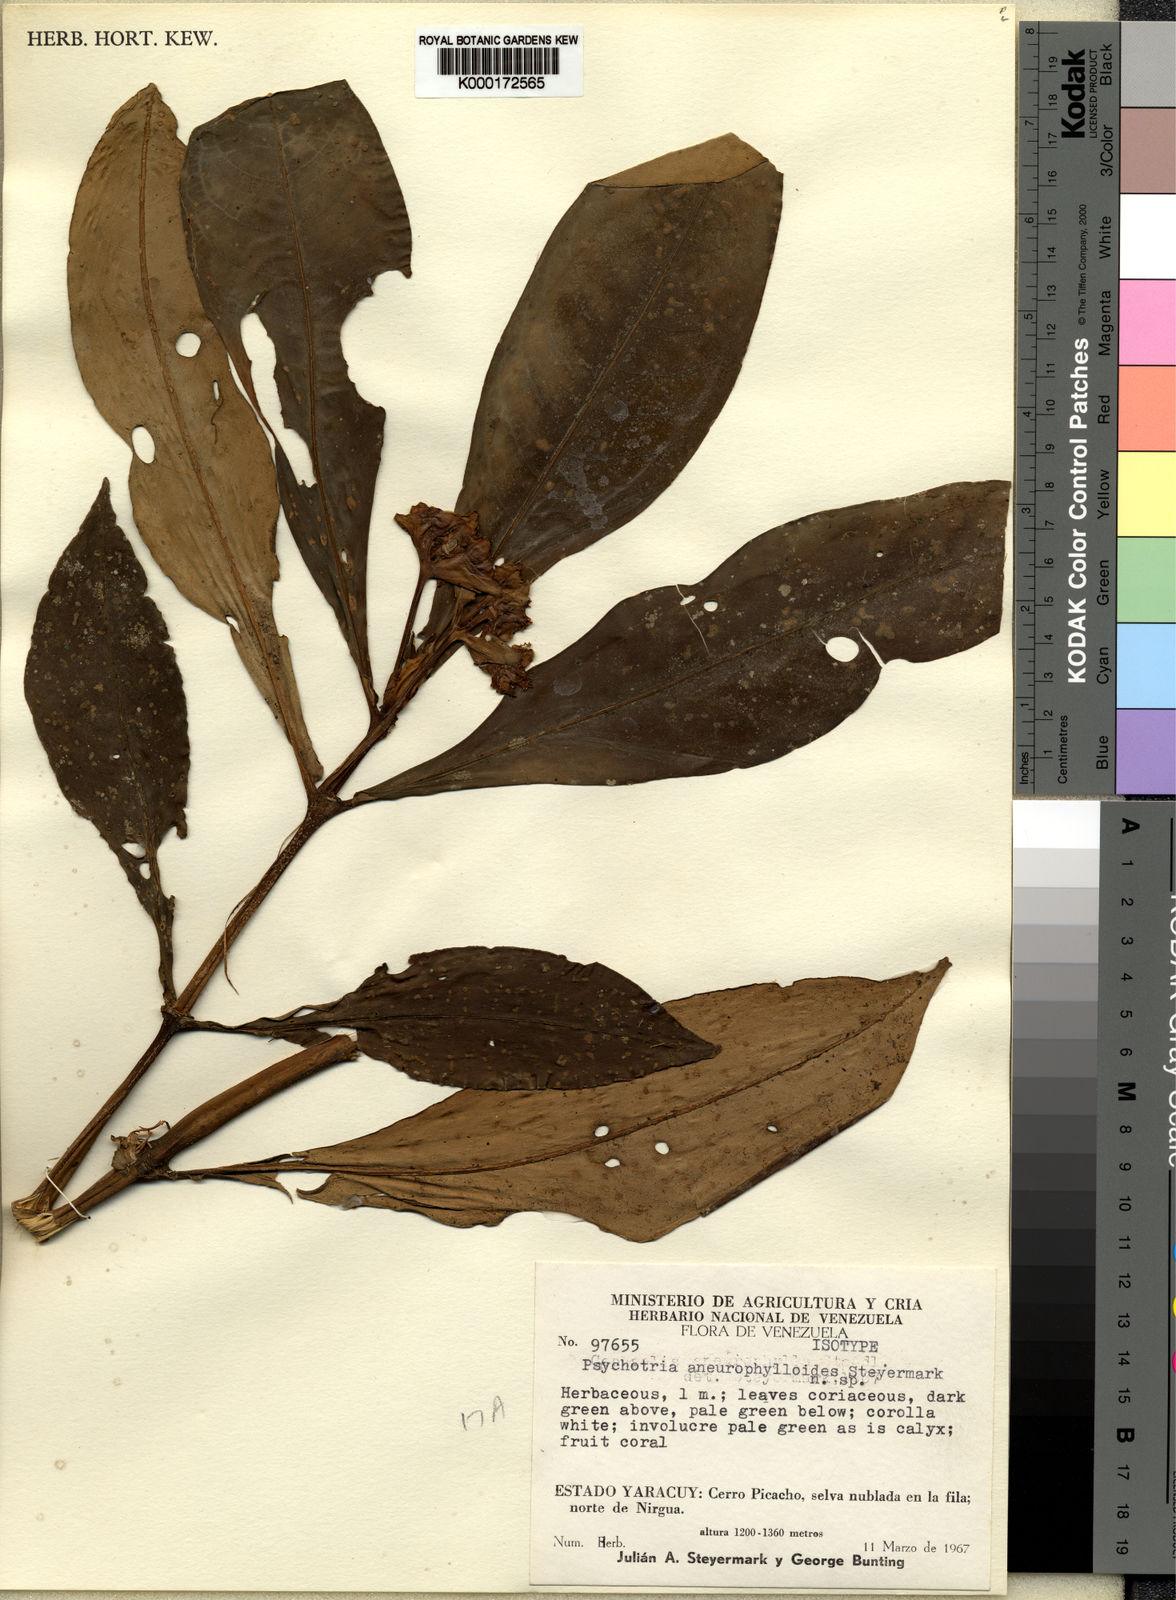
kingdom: Plantae
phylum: Tracheophyta
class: Magnoliopsida
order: Gentianales
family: Rubiaceae
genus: Notopleura
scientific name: Notopleura aneurophylloides
